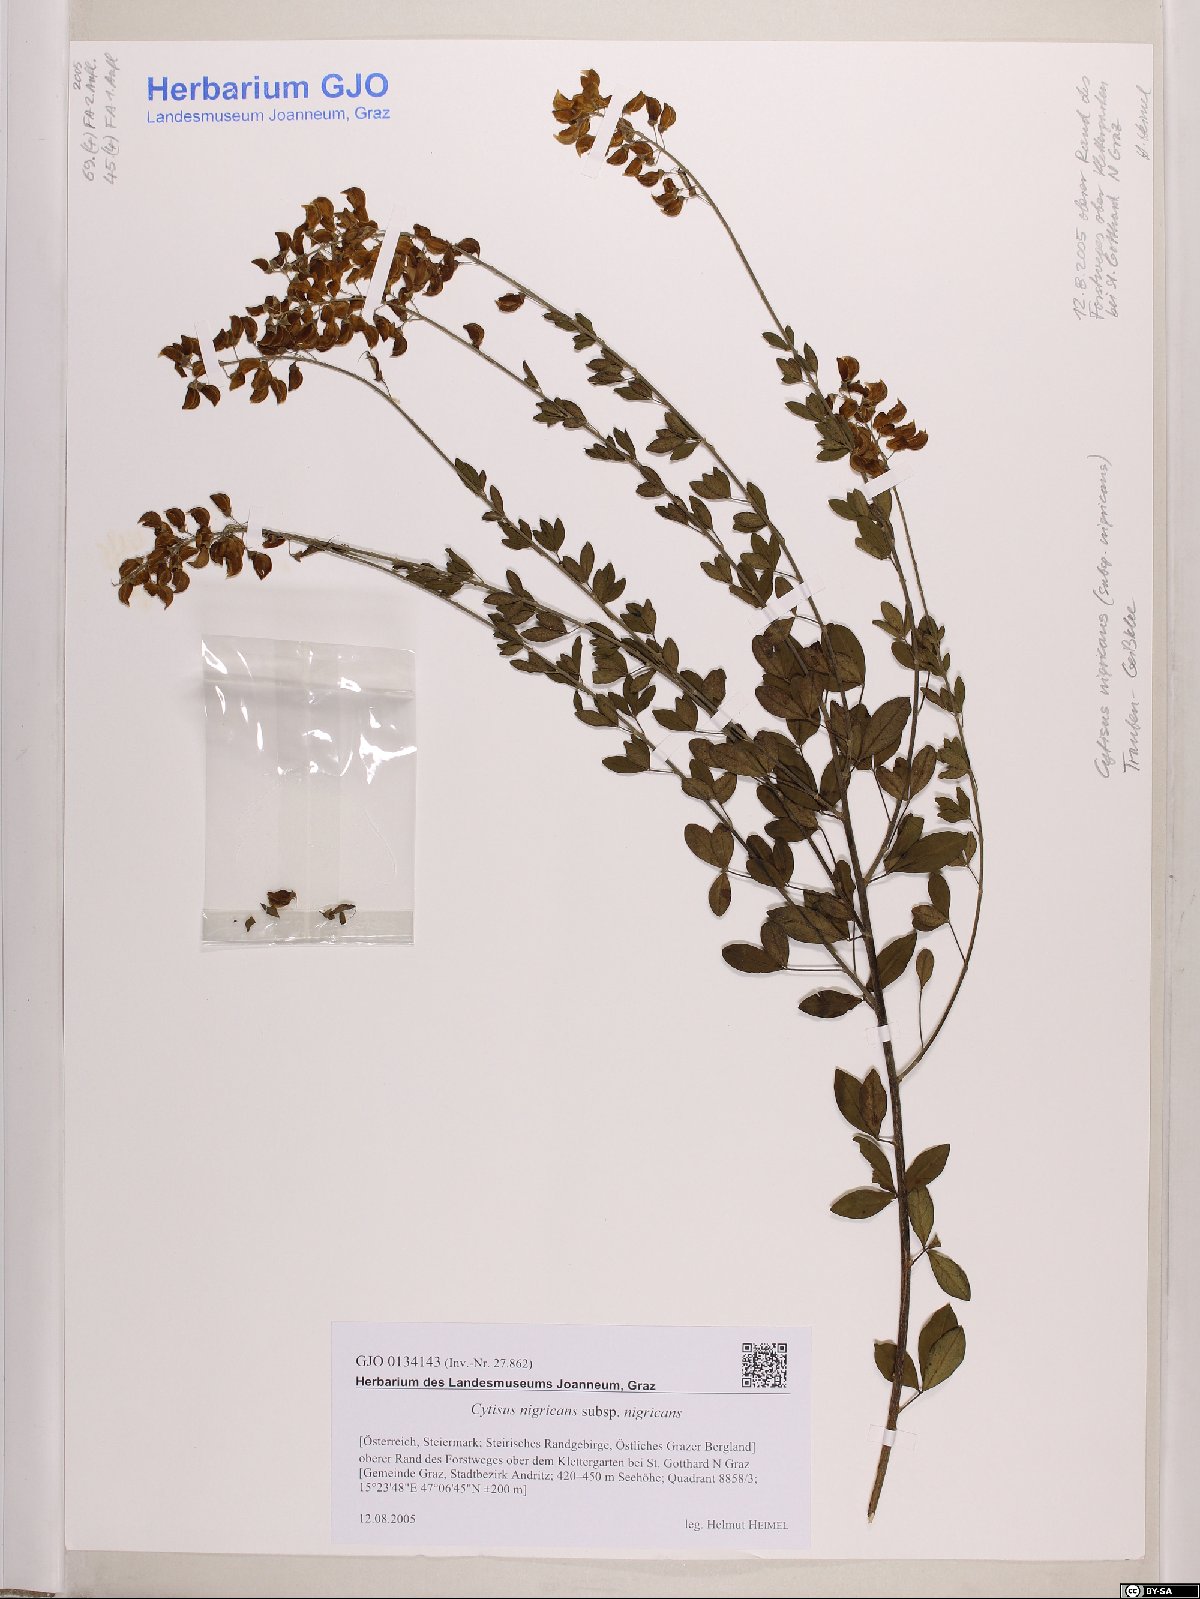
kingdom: Plantae
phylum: Tracheophyta
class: Magnoliopsida
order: Fabales
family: Fabaceae
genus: Cytisus
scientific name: Cytisus nigricans
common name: Black broom
